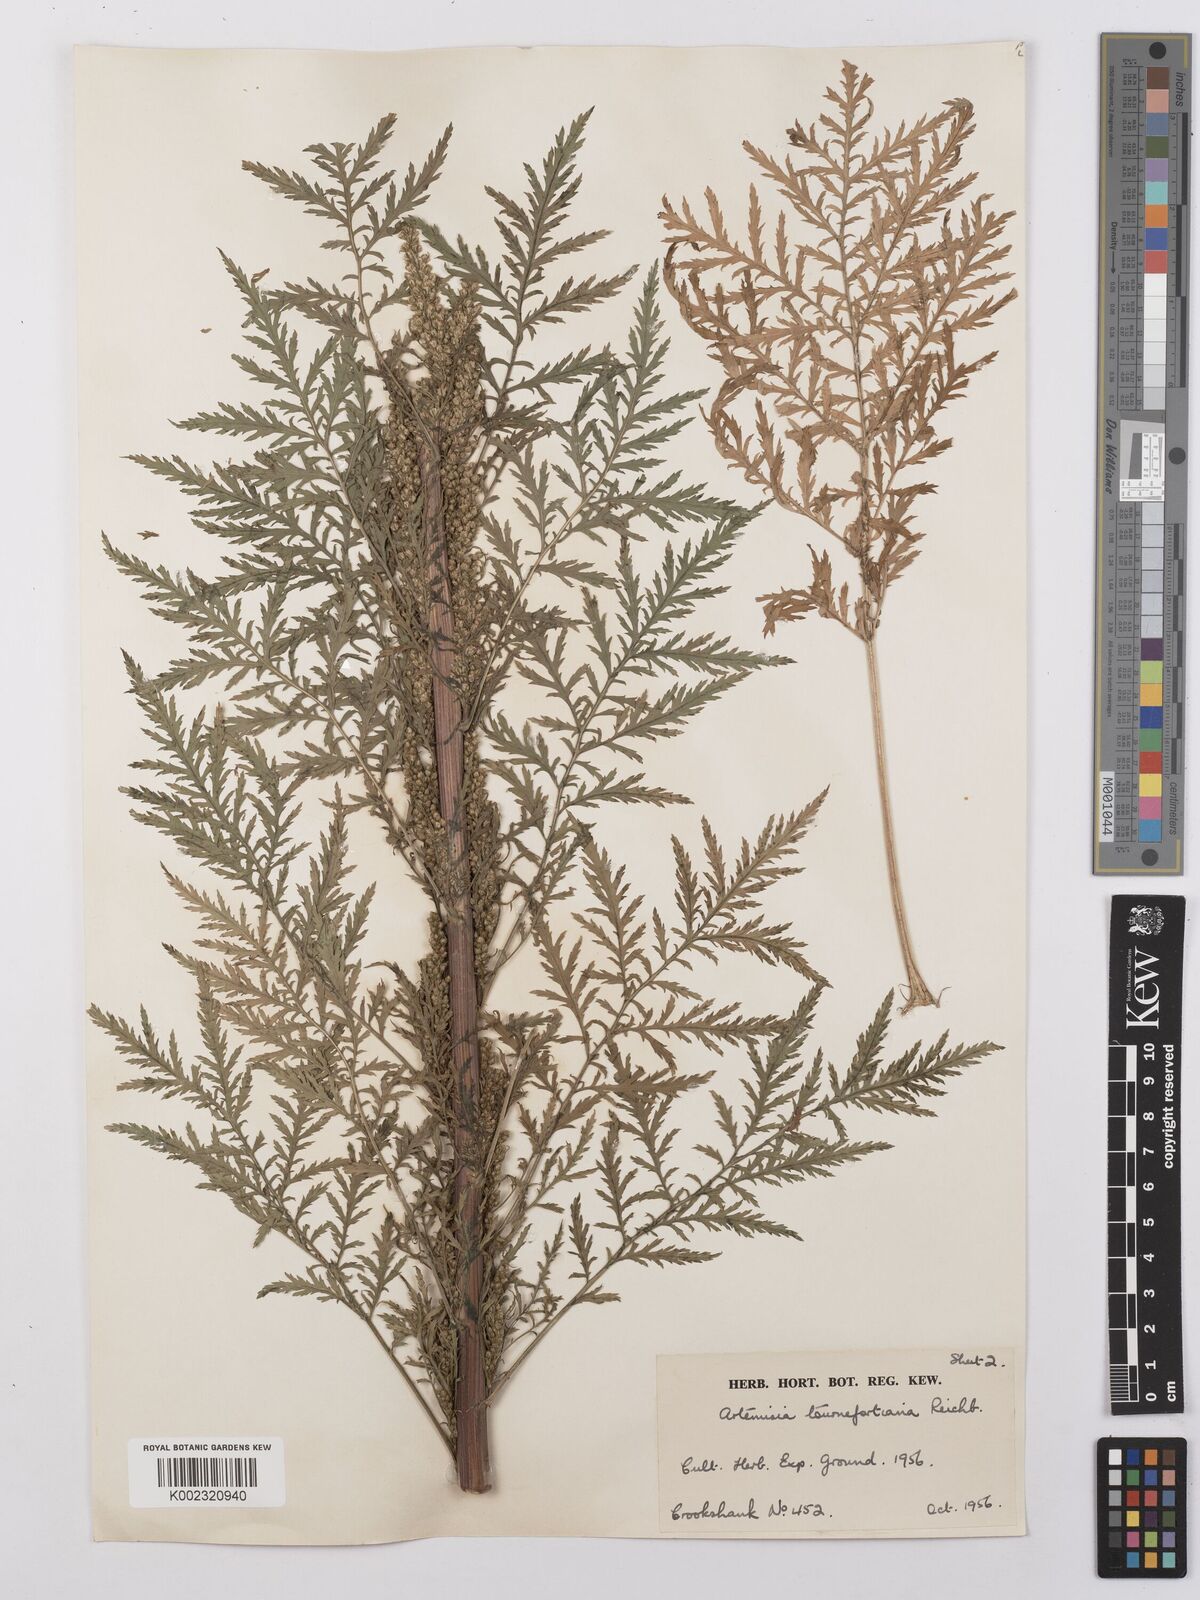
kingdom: Plantae
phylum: Tracheophyta
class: Magnoliopsida
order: Asterales
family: Asteraceae
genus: Artemisia
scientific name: Artemisia tournefortiana
